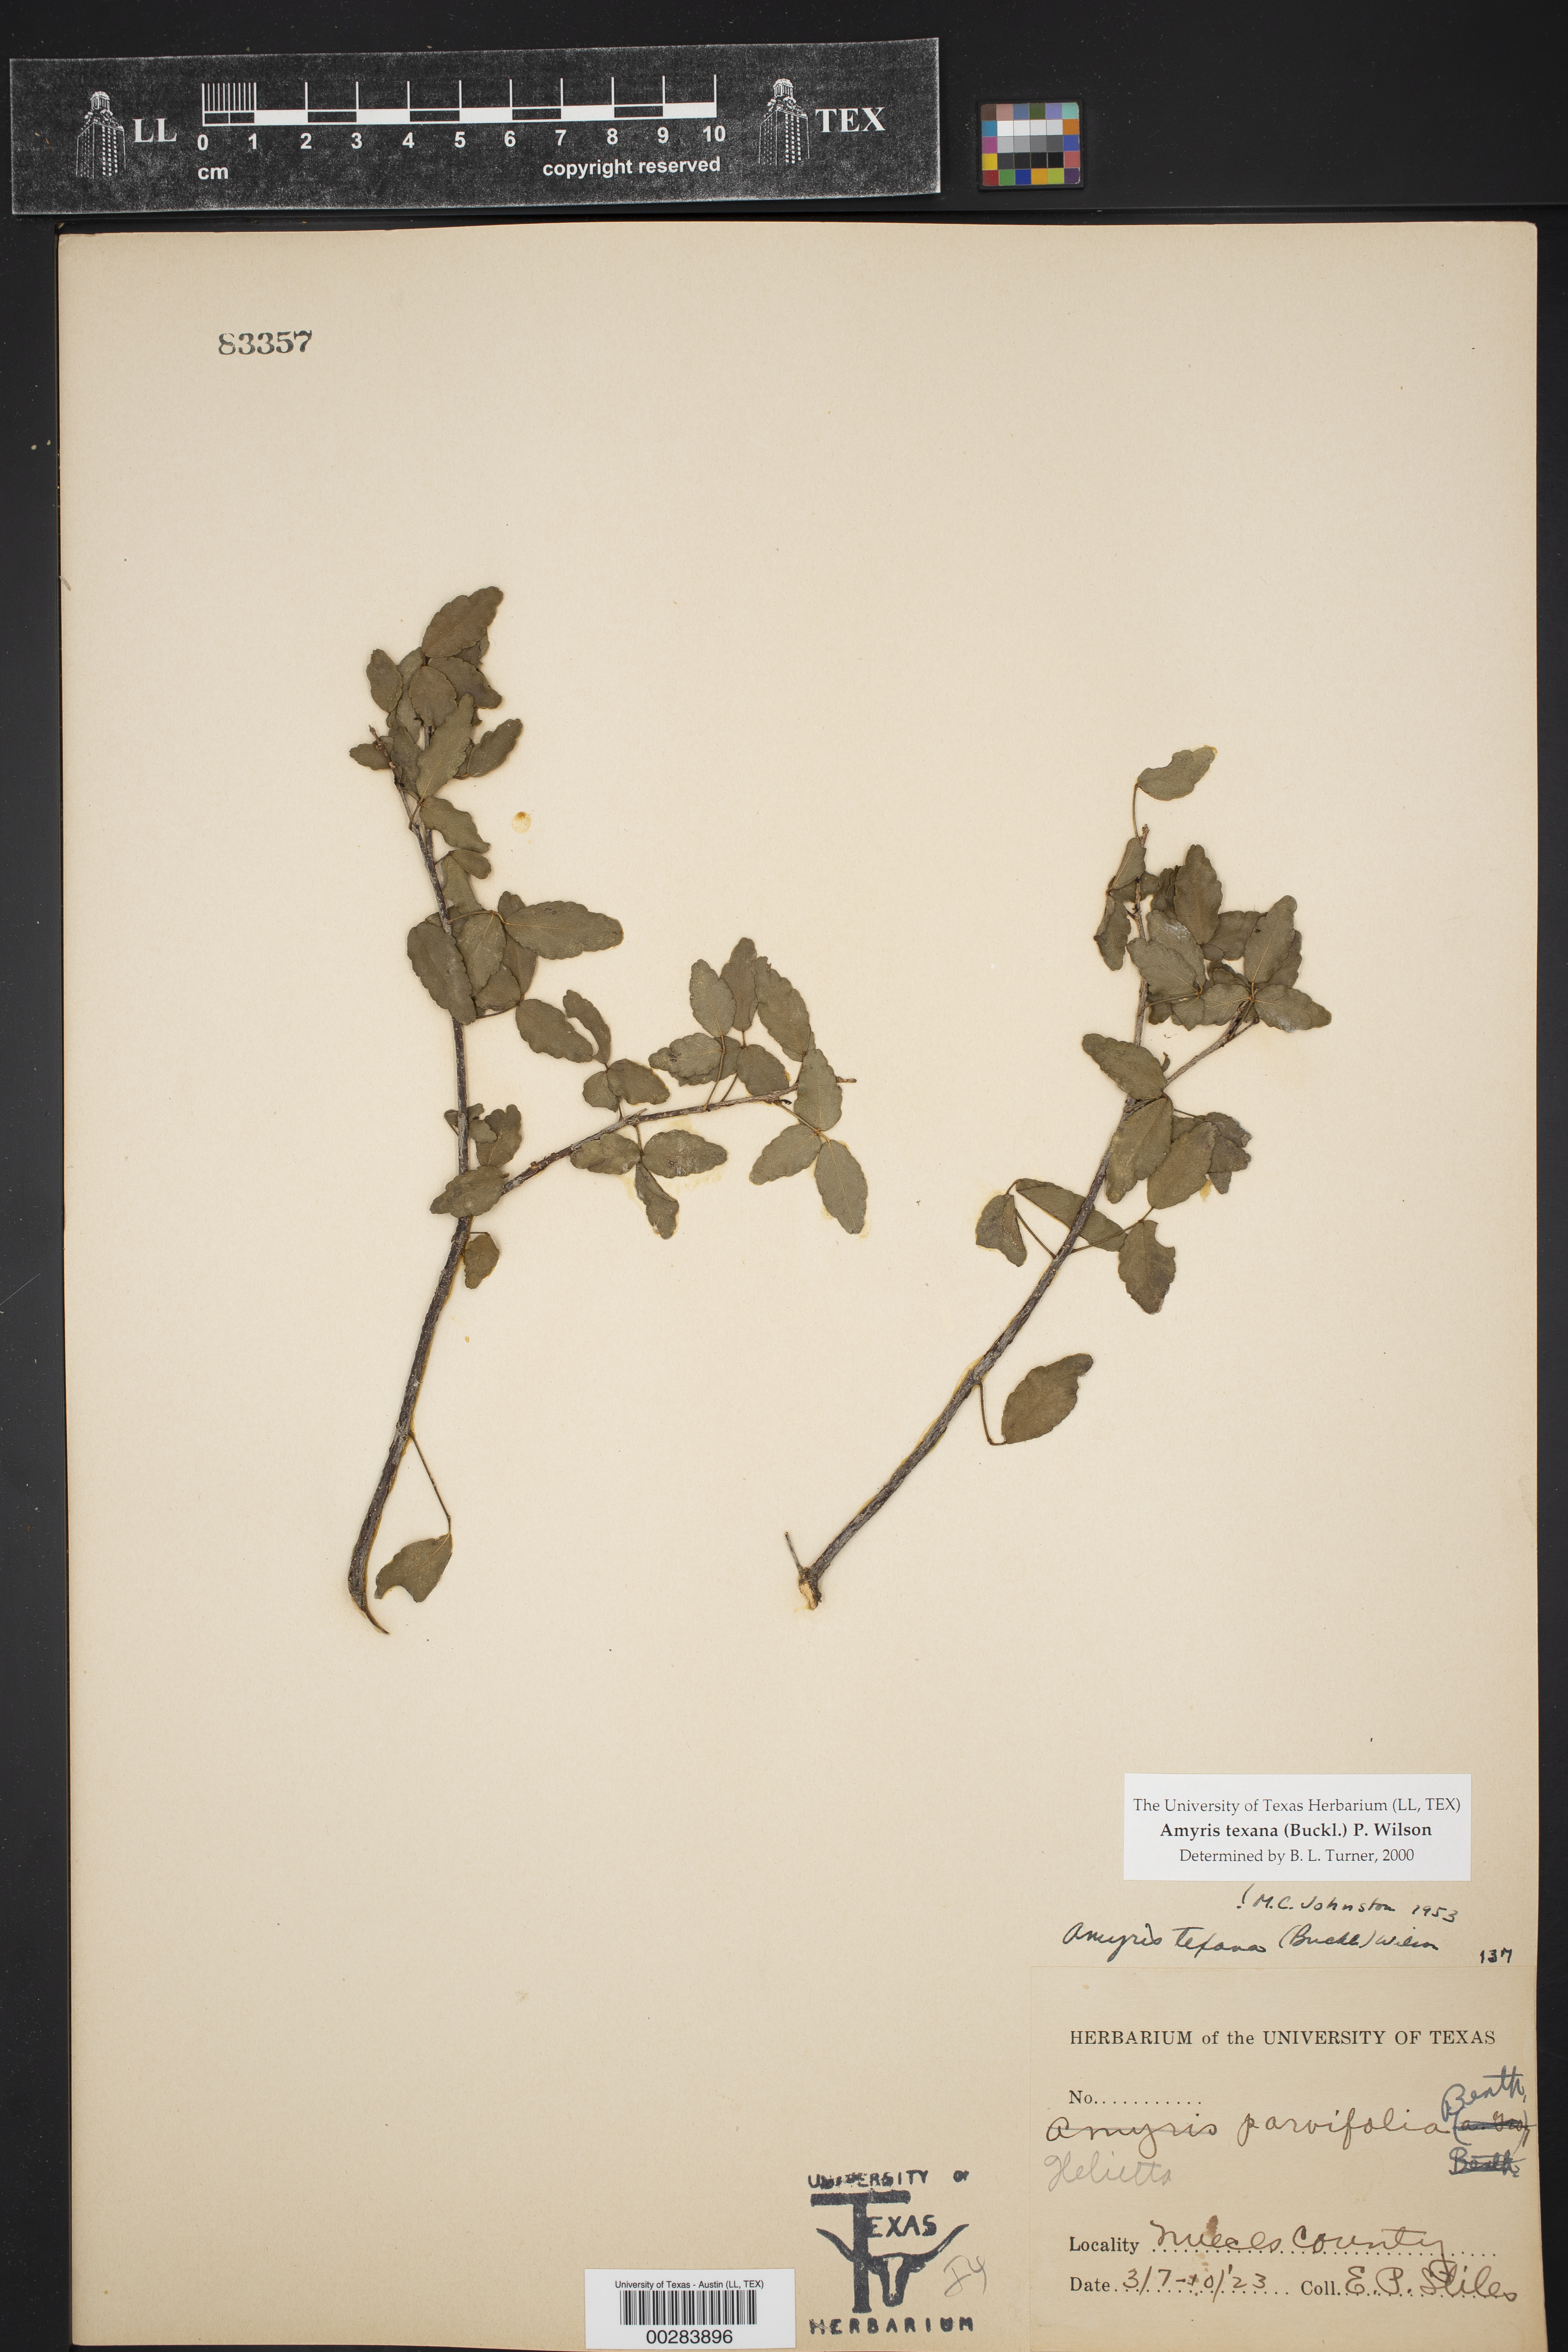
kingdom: Plantae
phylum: Tracheophyta
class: Magnoliopsida
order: Sapindales
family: Rutaceae
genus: Amyris
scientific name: Amyris texana
